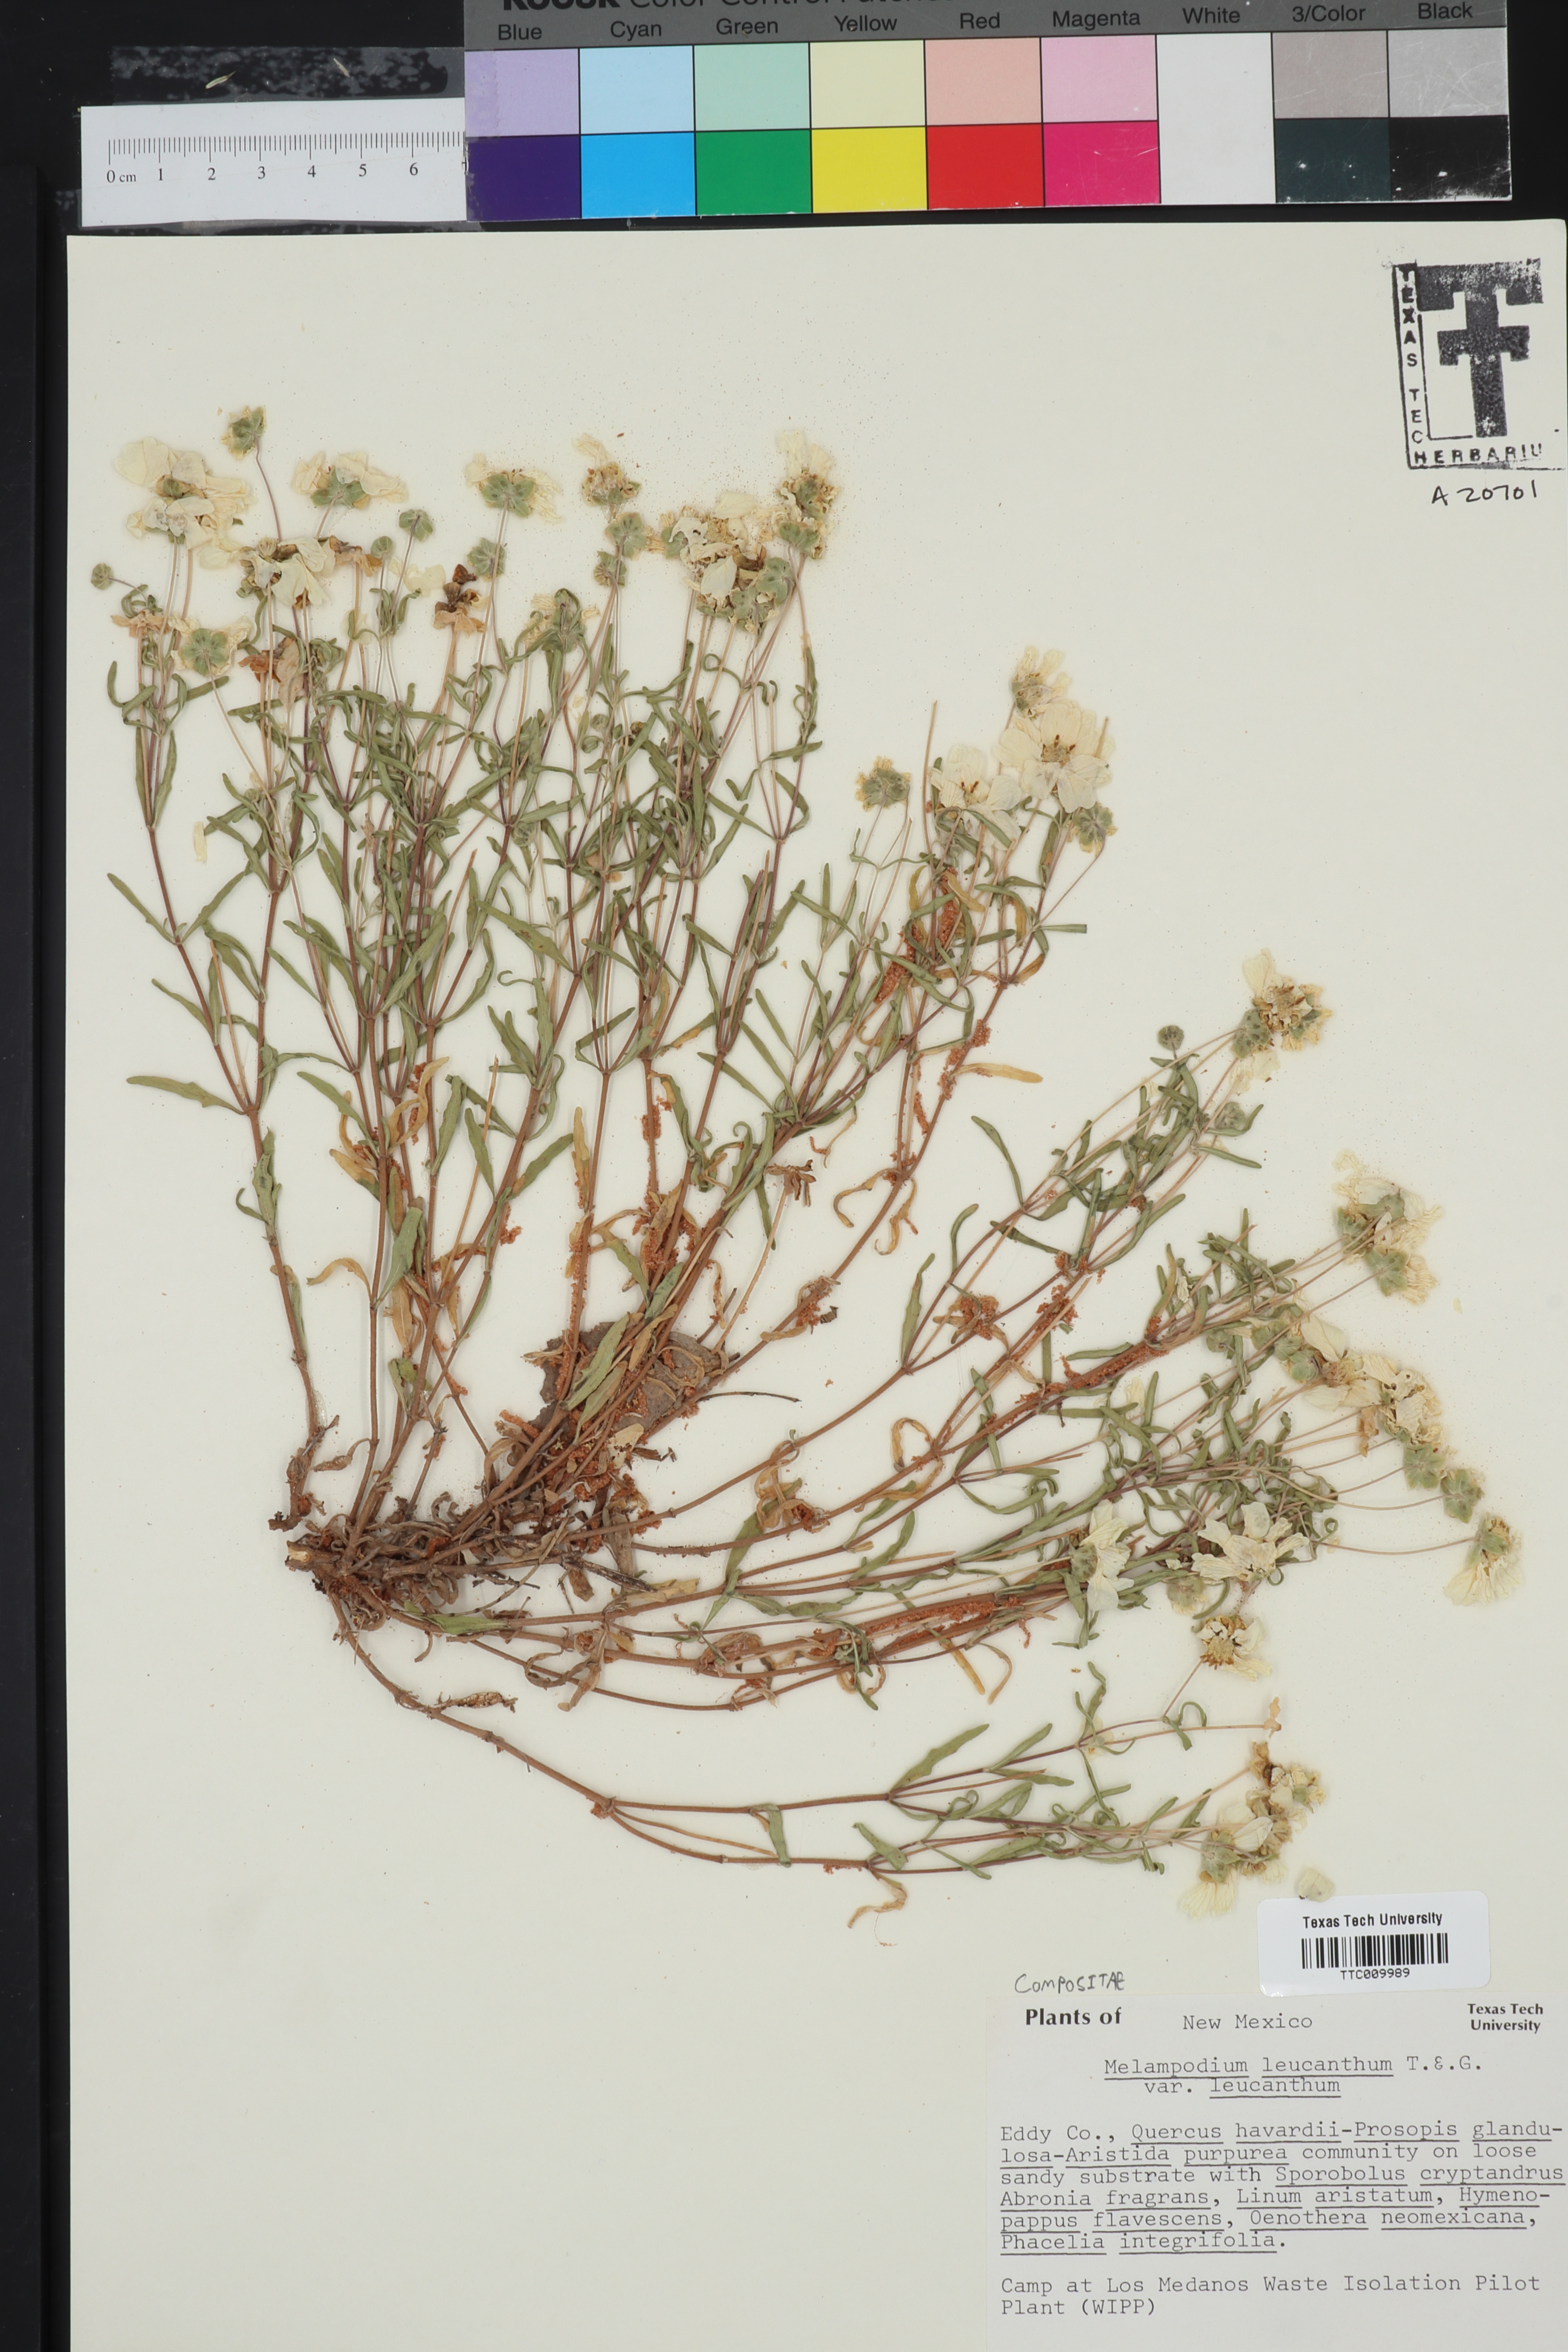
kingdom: Plantae
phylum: Tracheophyta
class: Magnoliopsida
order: Asterales
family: Asteraceae
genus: Melampodium
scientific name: Melampodium leucanthum
